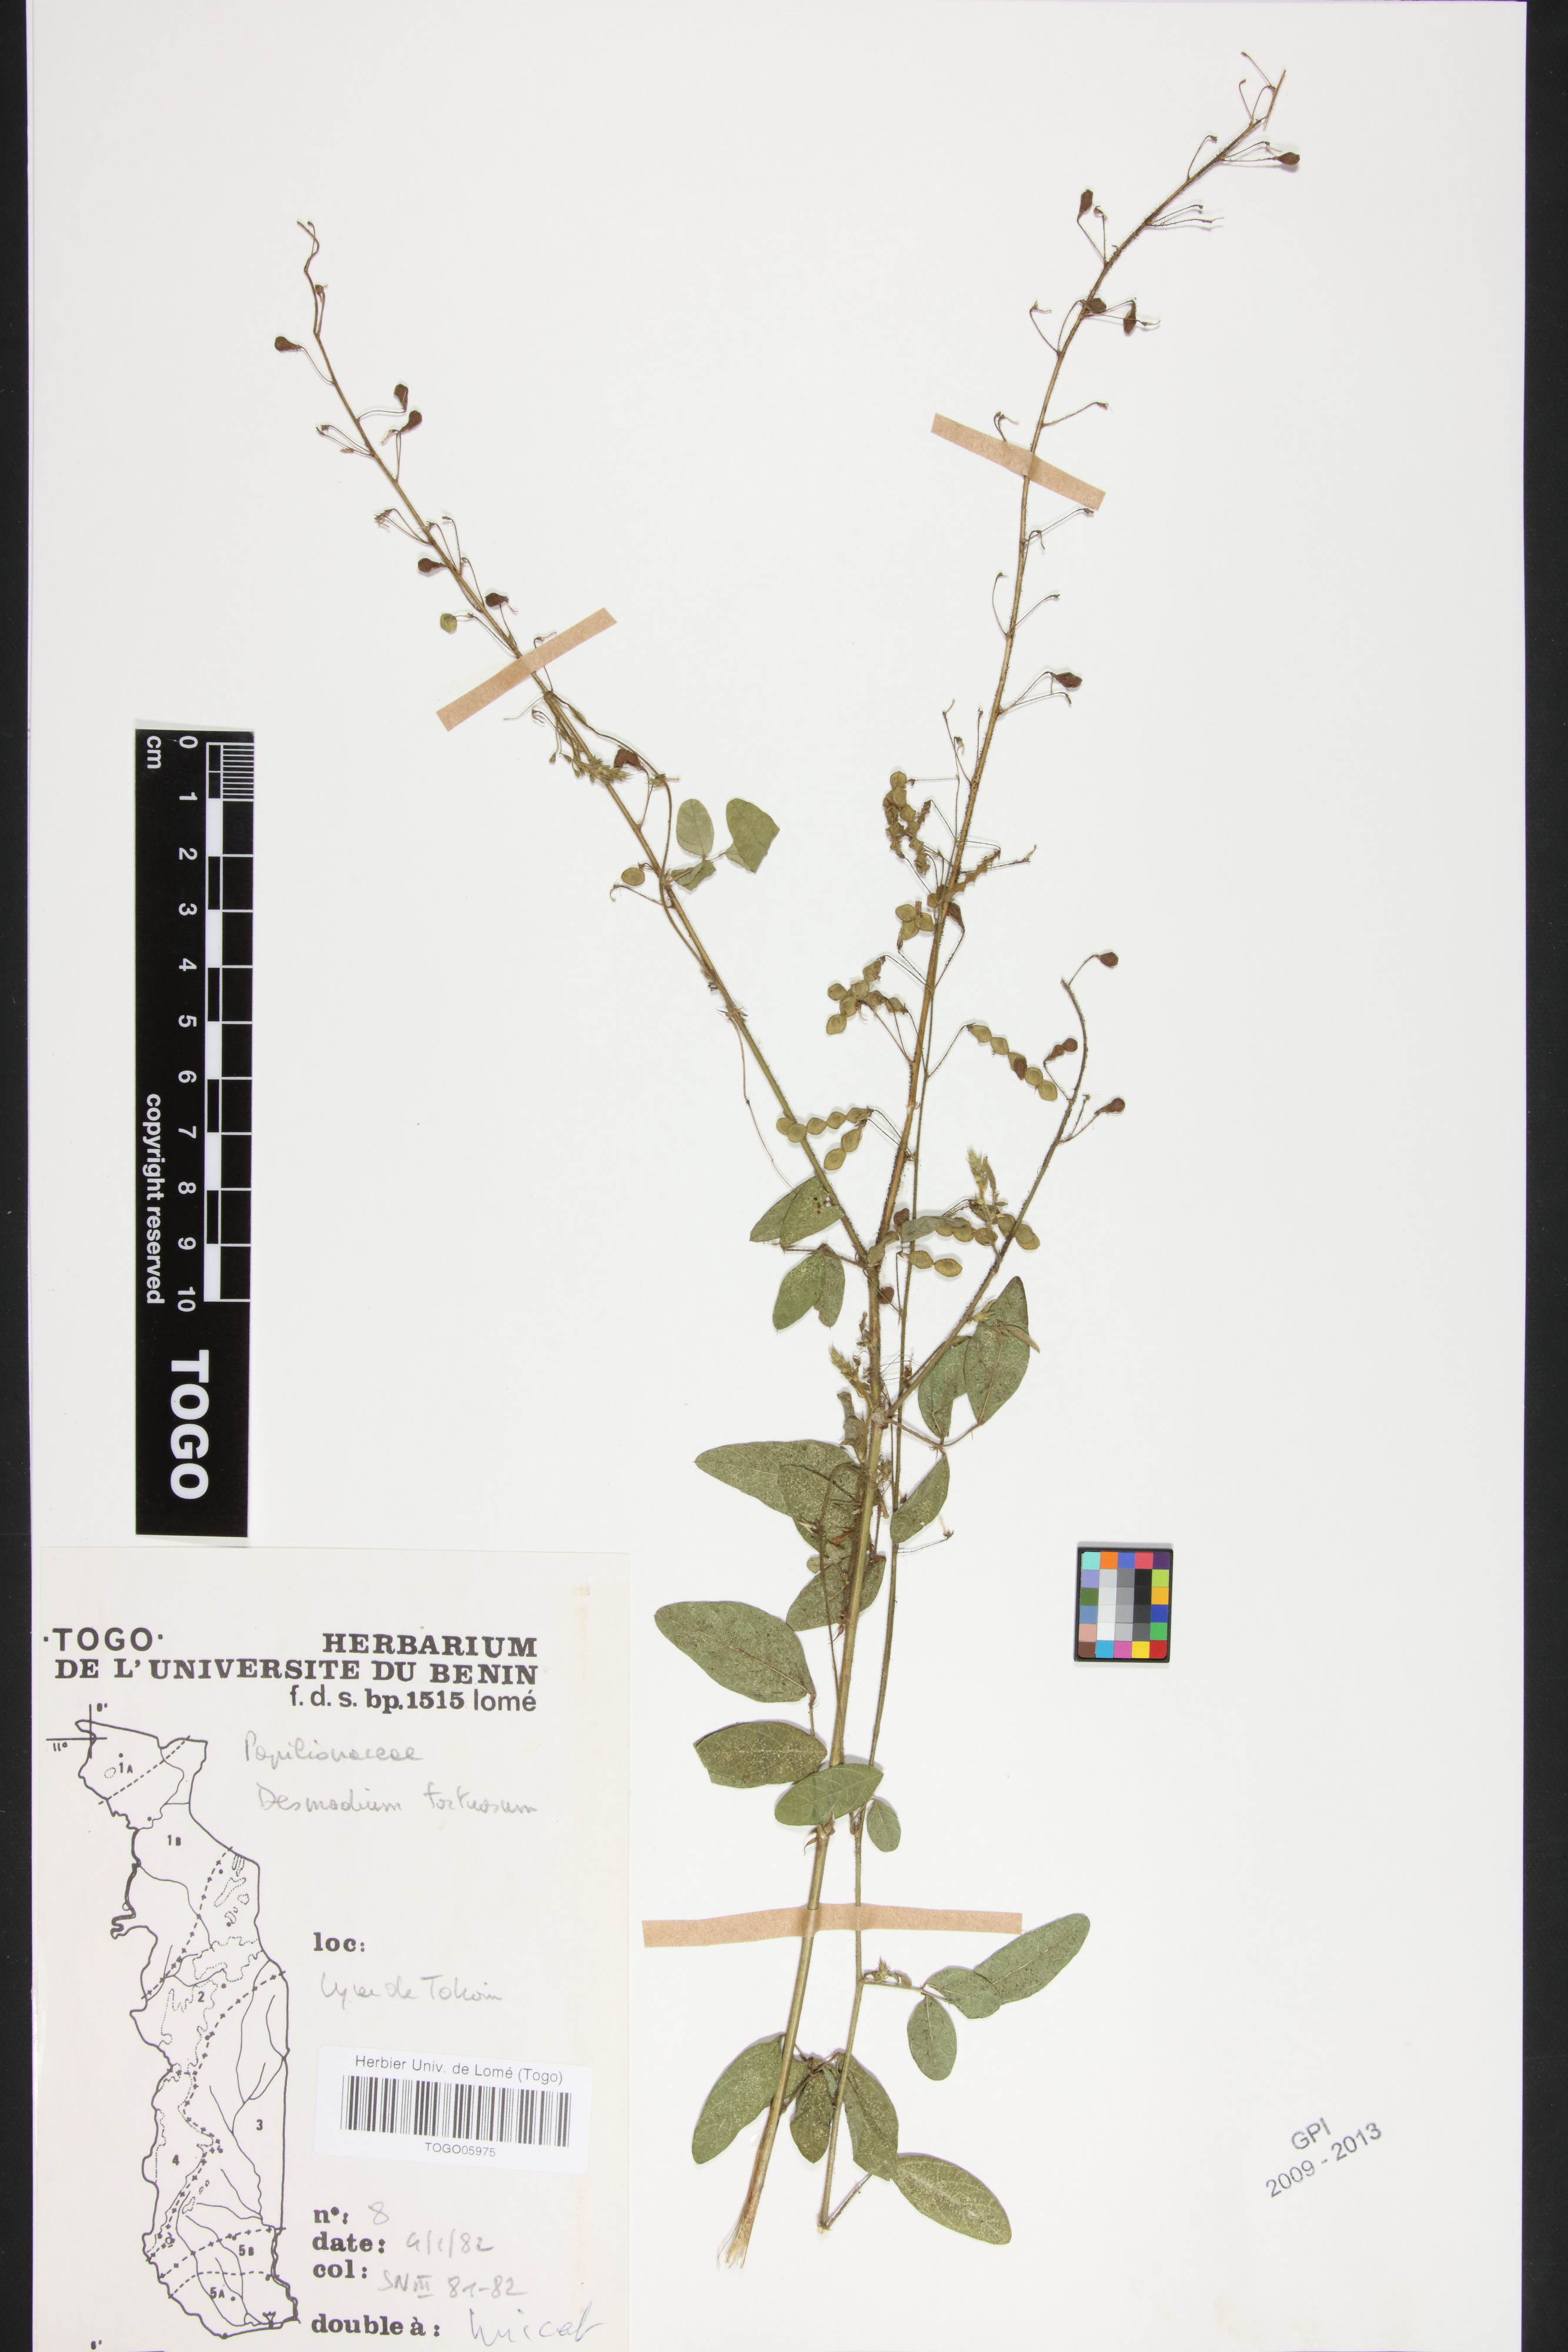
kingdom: Plantae
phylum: Tracheophyta
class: Magnoliopsida
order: Fabales
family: Fabaceae
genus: Desmodium
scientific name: Desmodium tortuosum
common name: Dixie ticktrefoil
